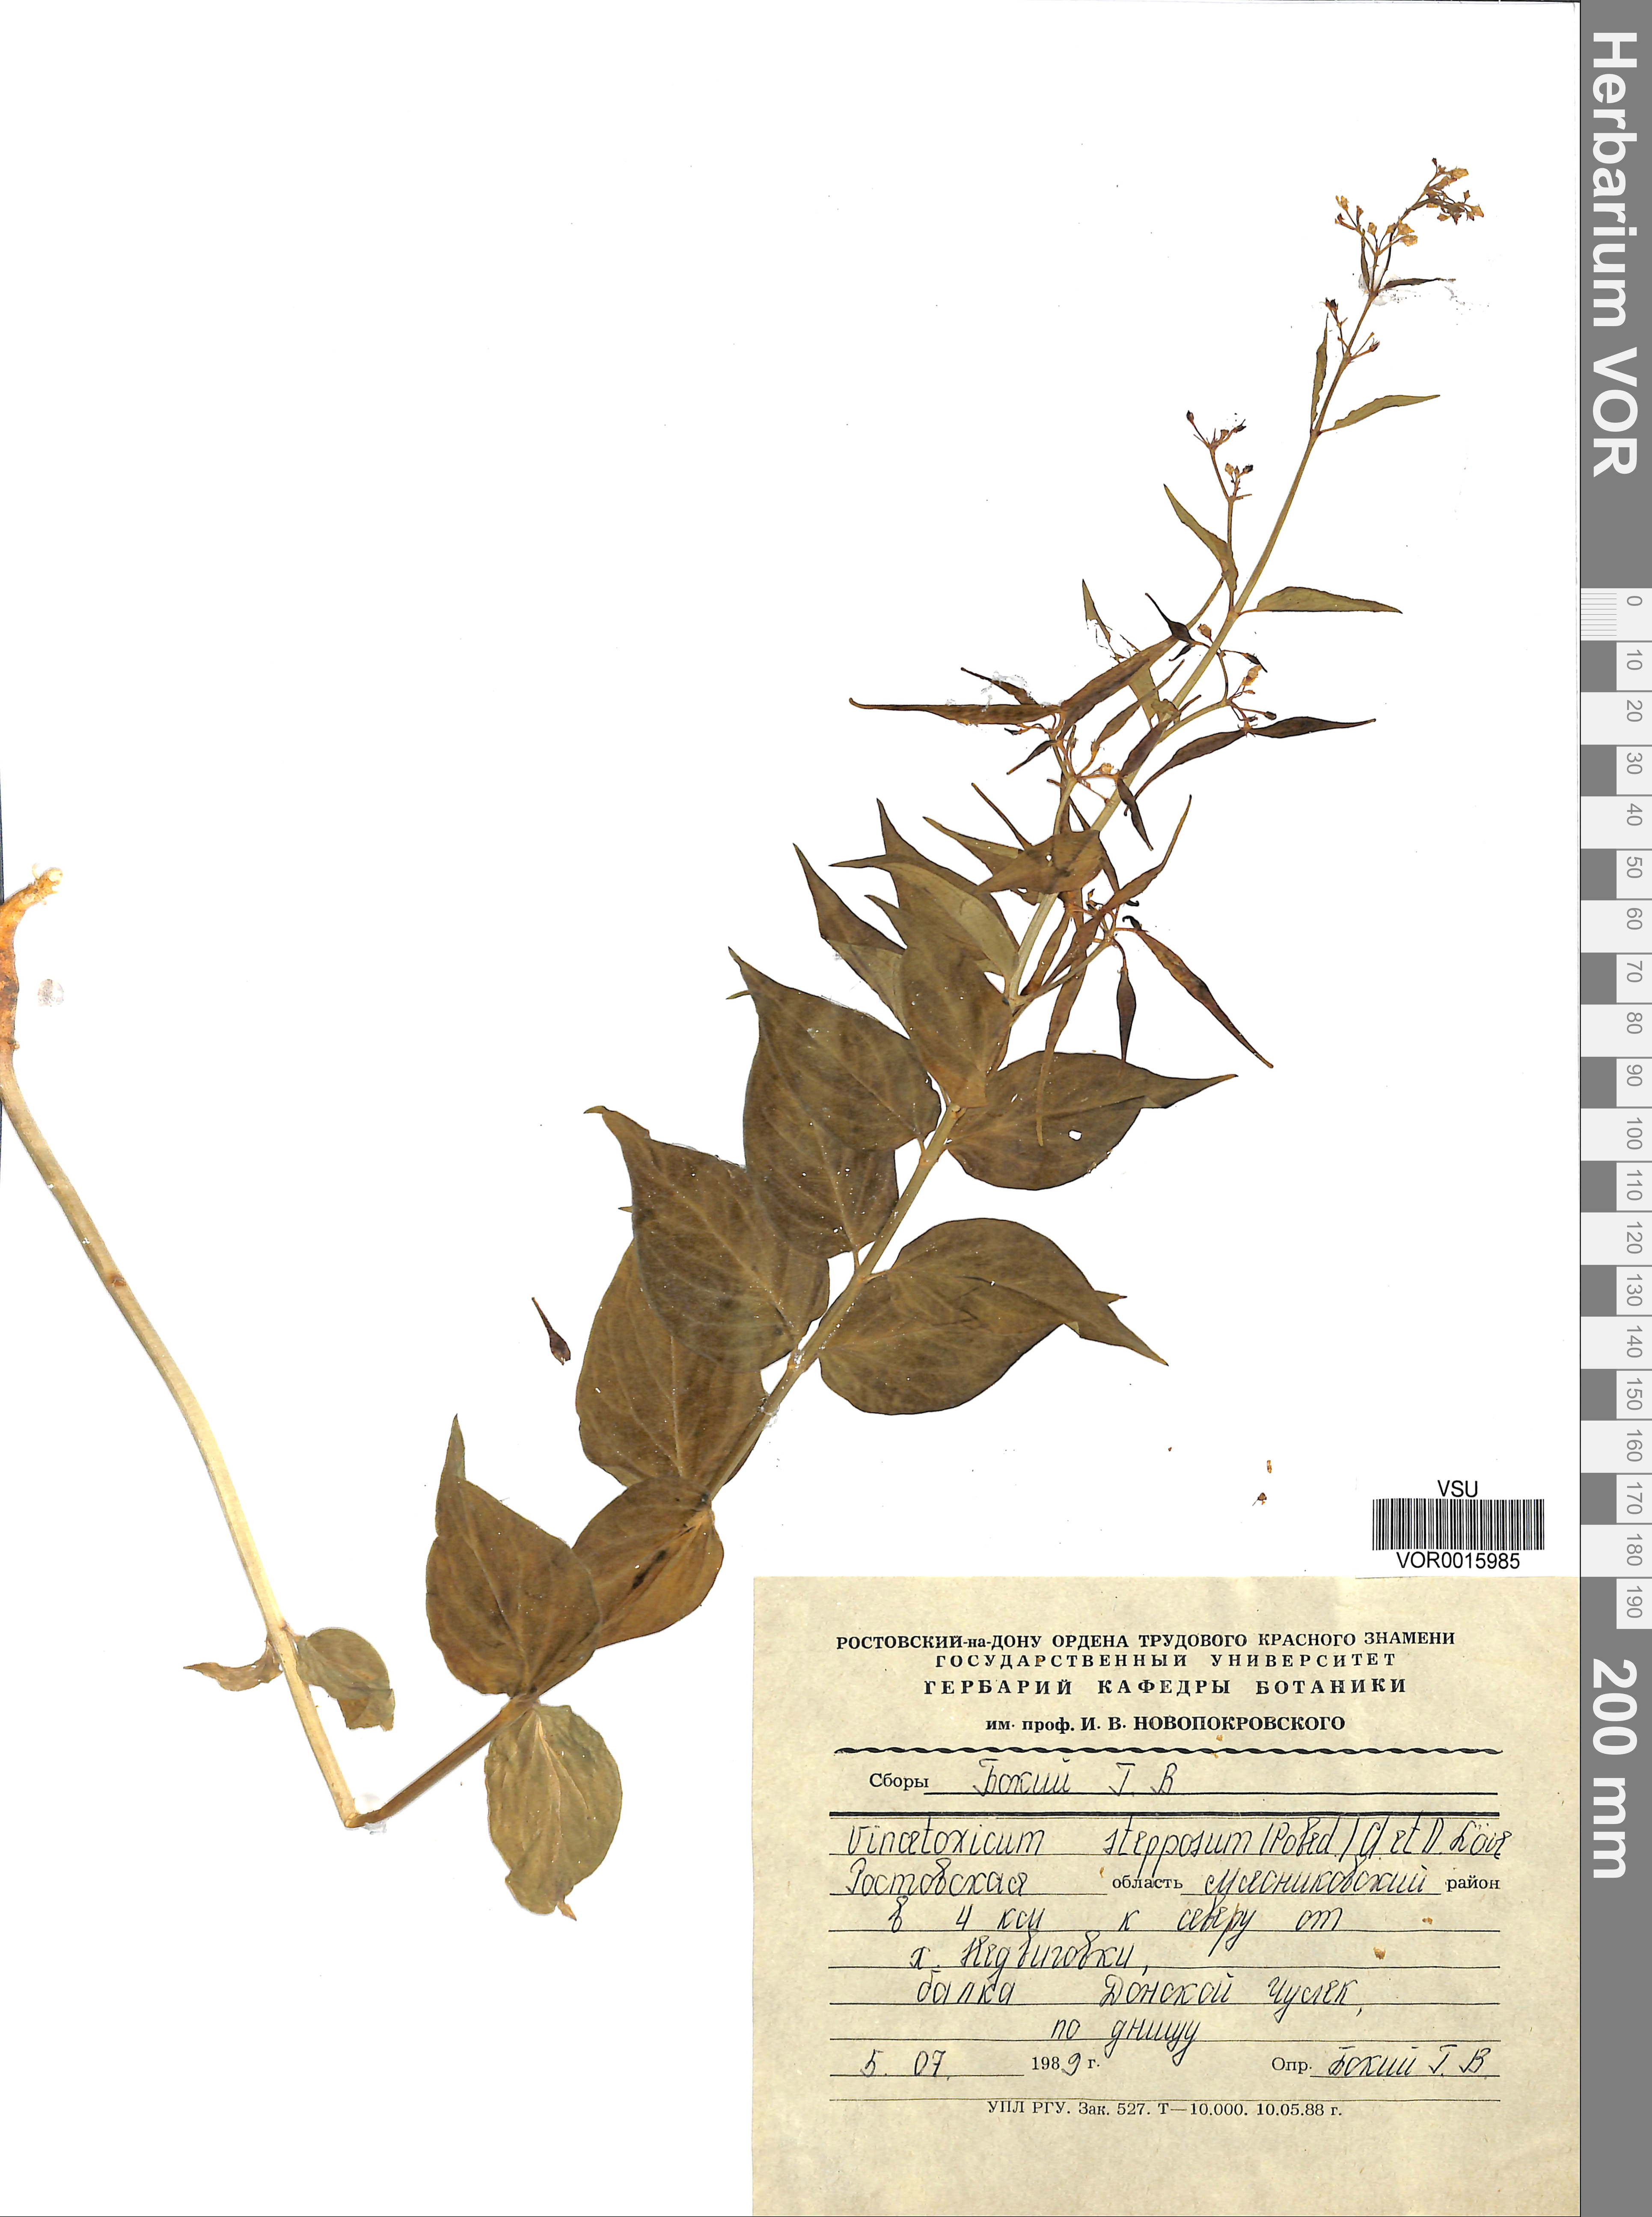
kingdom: Plantae
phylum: Tracheophyta
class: Magnoliopsida
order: Gentianales
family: Apocynaceae
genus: Vincetoxicum
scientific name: Vincetoxicum hirundinaria
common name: White swallowwort
